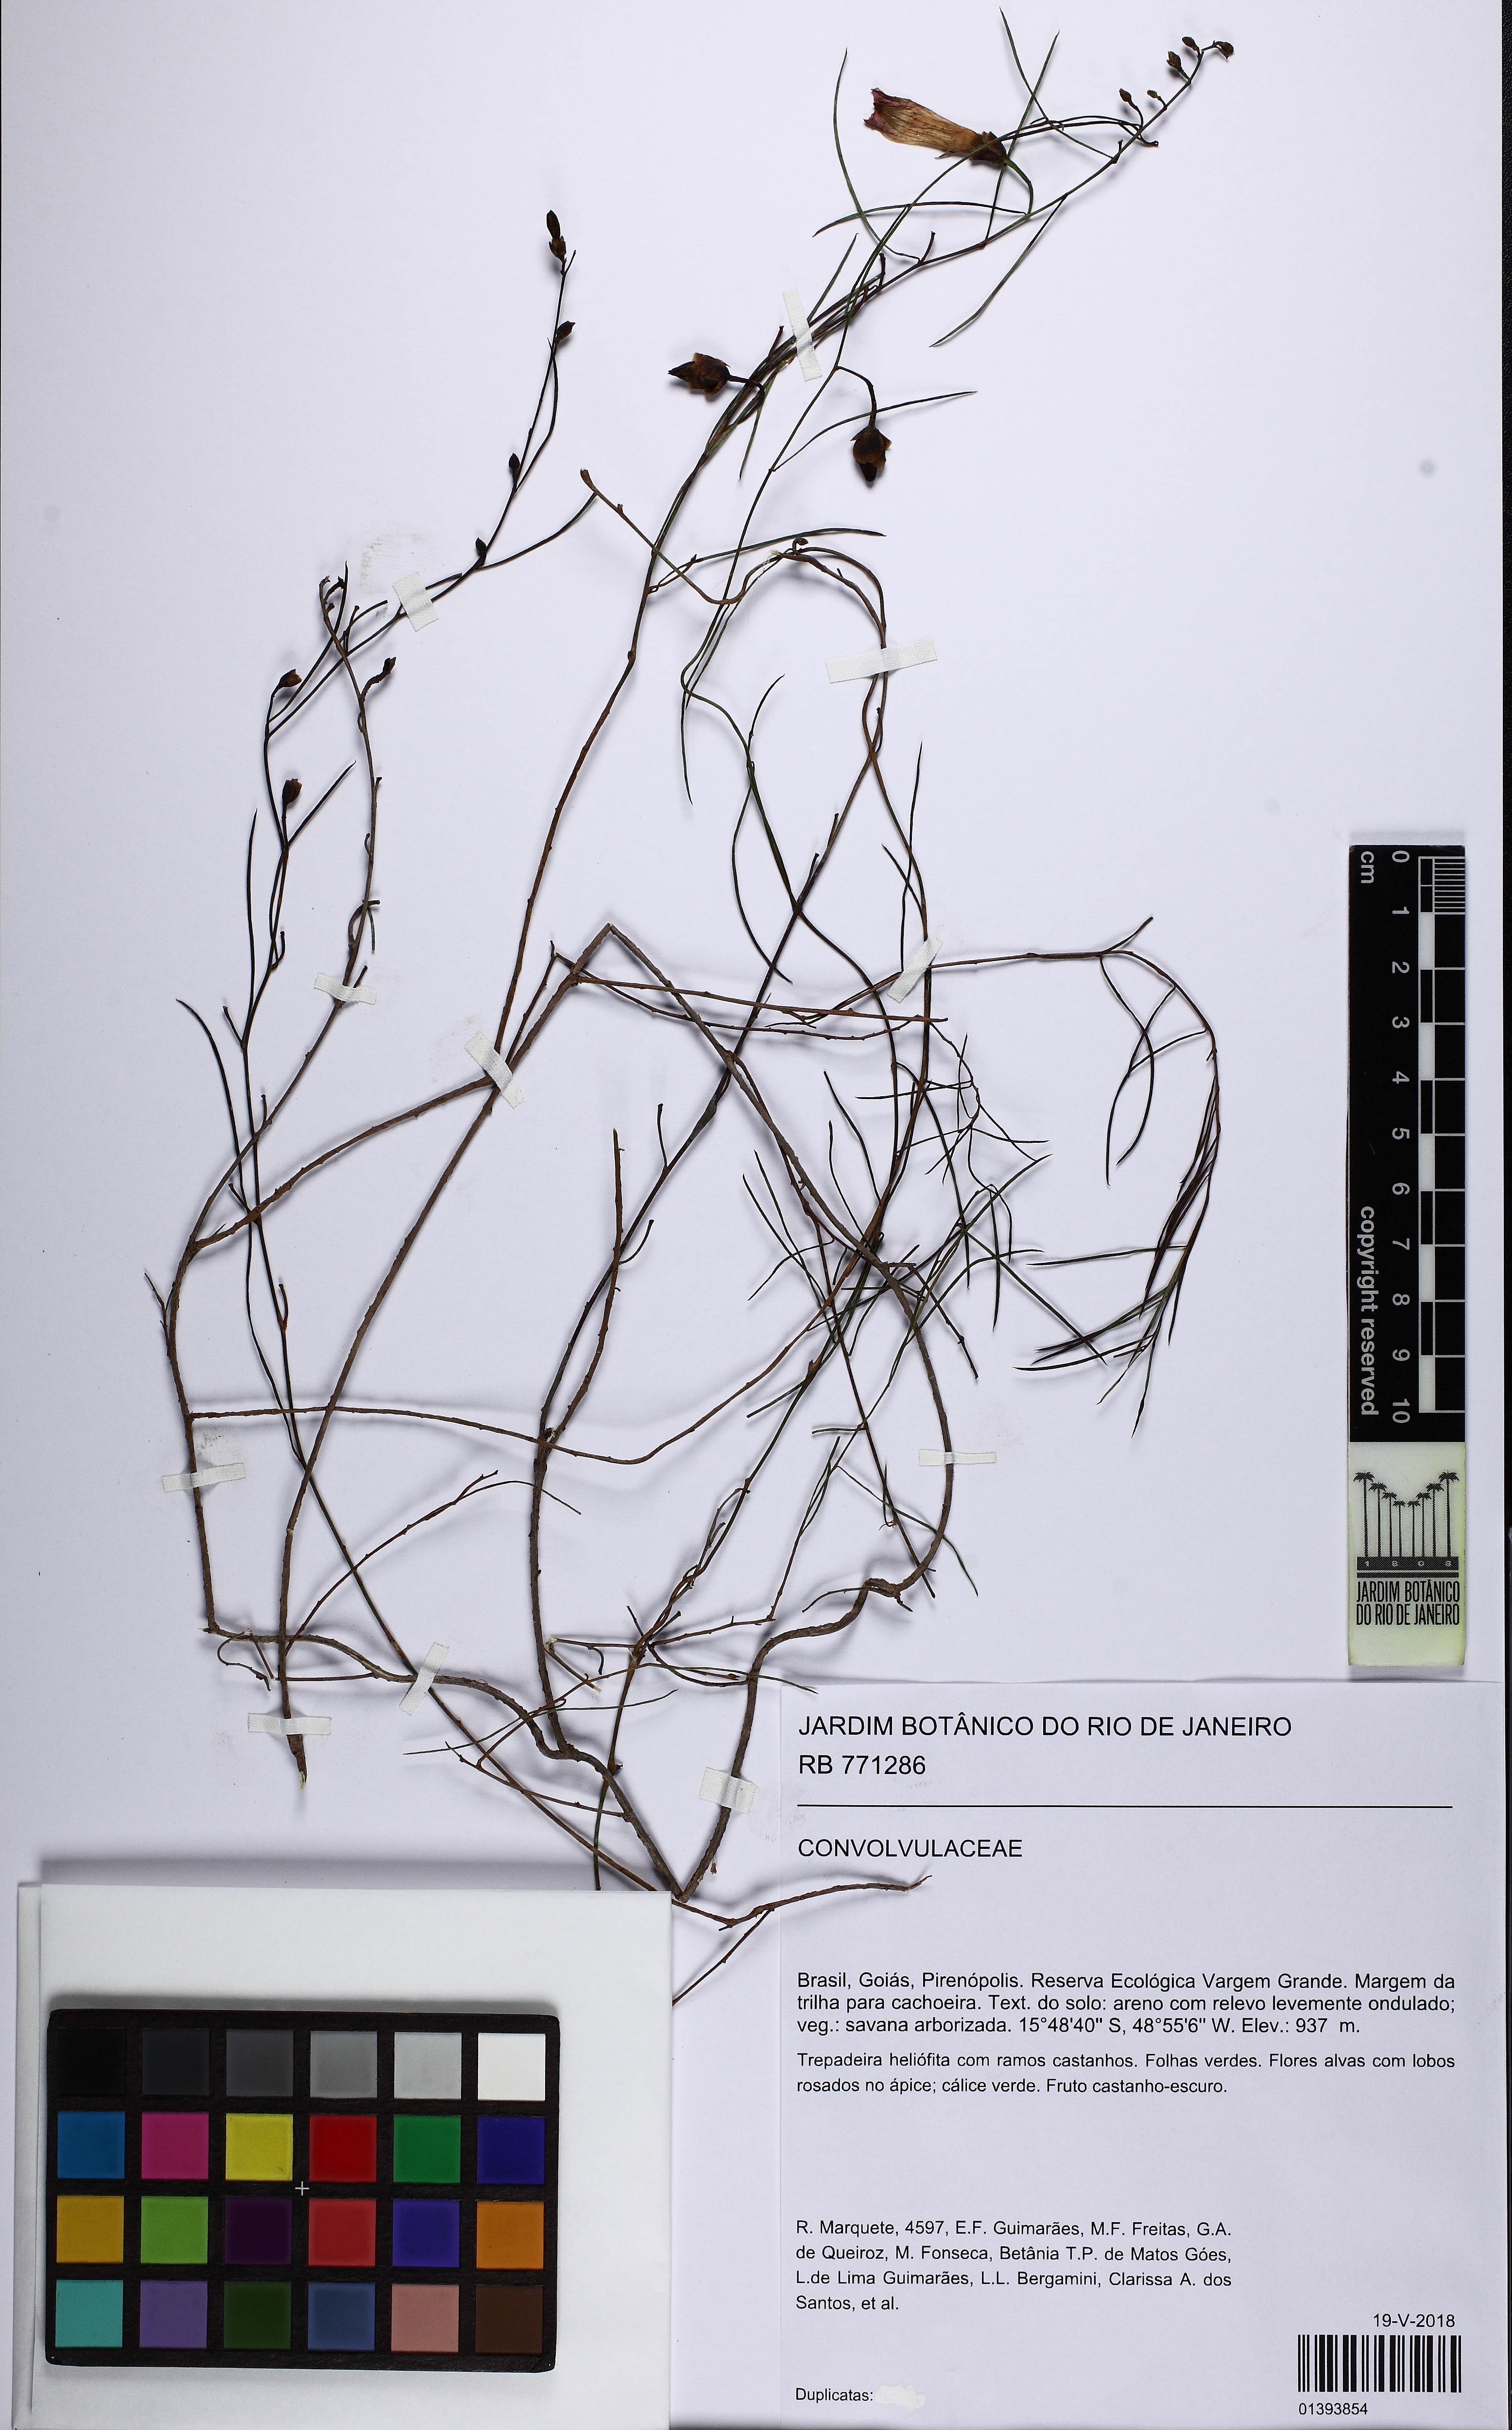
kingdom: Plantae
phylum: Tracheophyta
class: Magnoliopsida
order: Solanales
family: Convolvulaceae
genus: Ipomoea
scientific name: Ipomoea pinifolia
